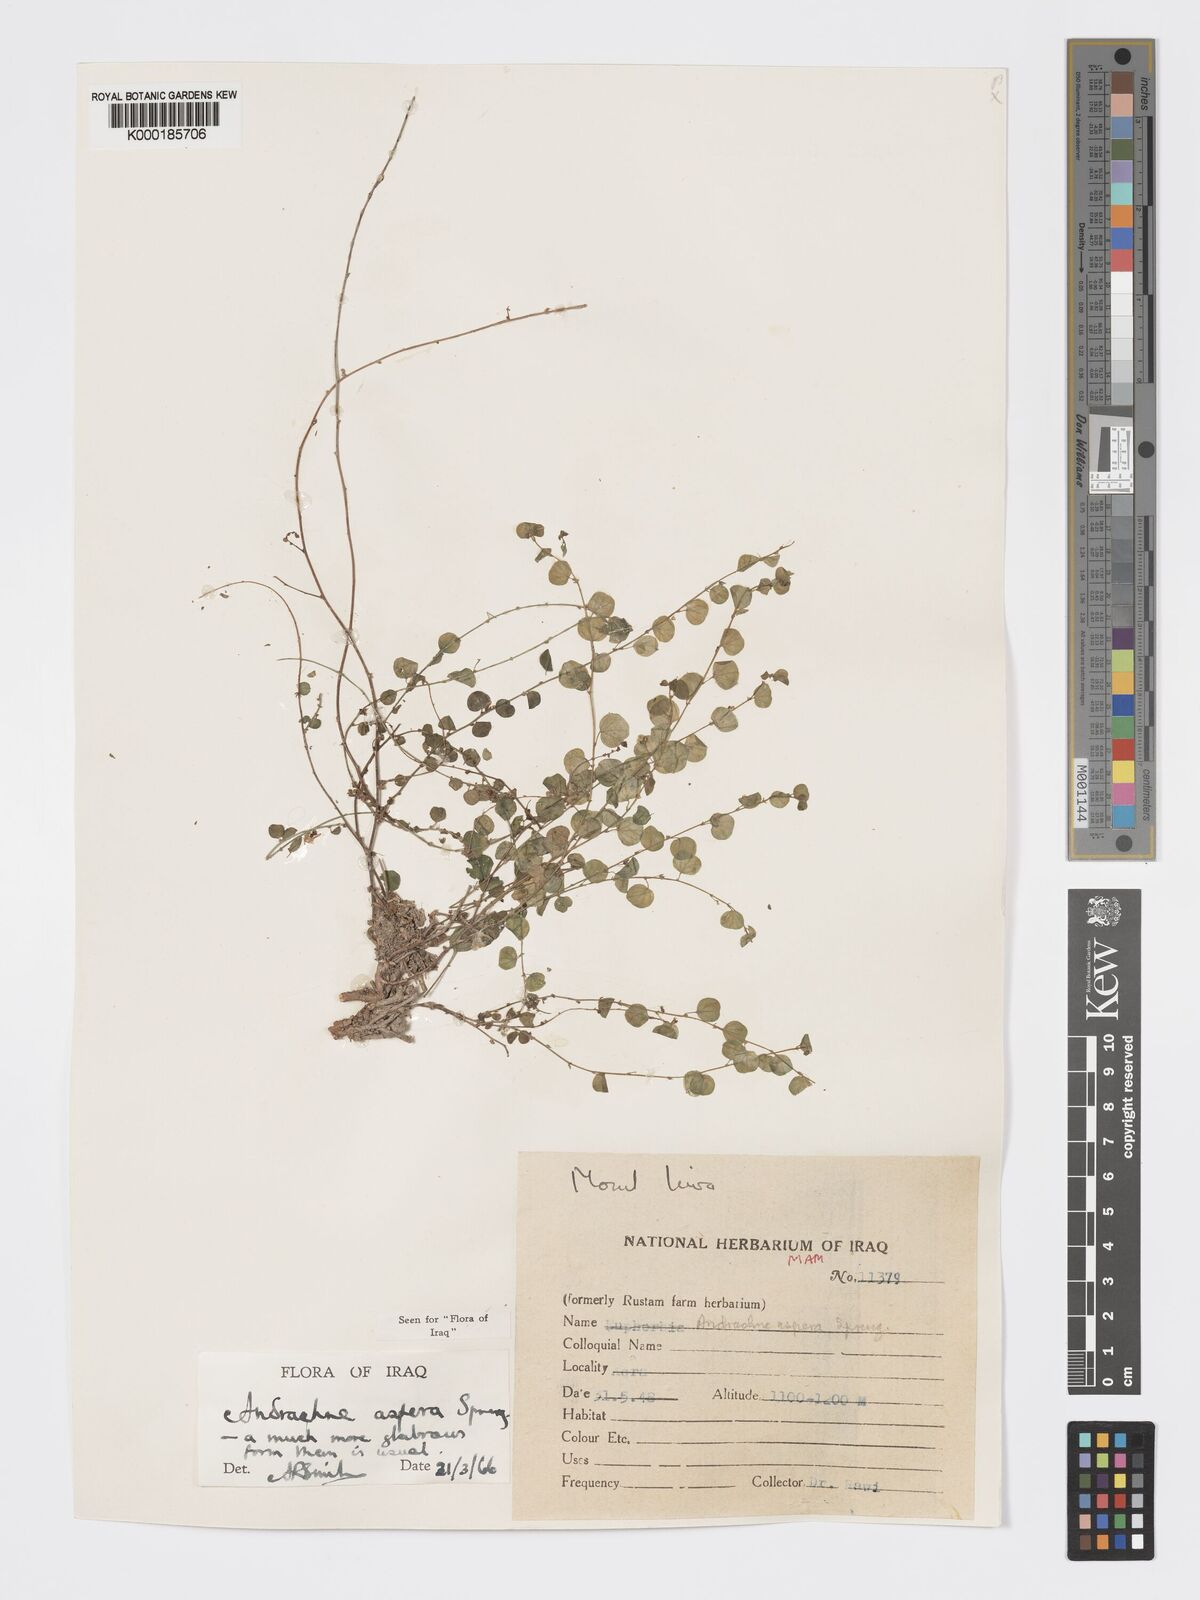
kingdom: Plantae
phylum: Tracheophyta
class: Magnoliopsida
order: Malpighiales
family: Phyllanthaceae
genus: Andrachne
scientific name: Andrachne aspera
